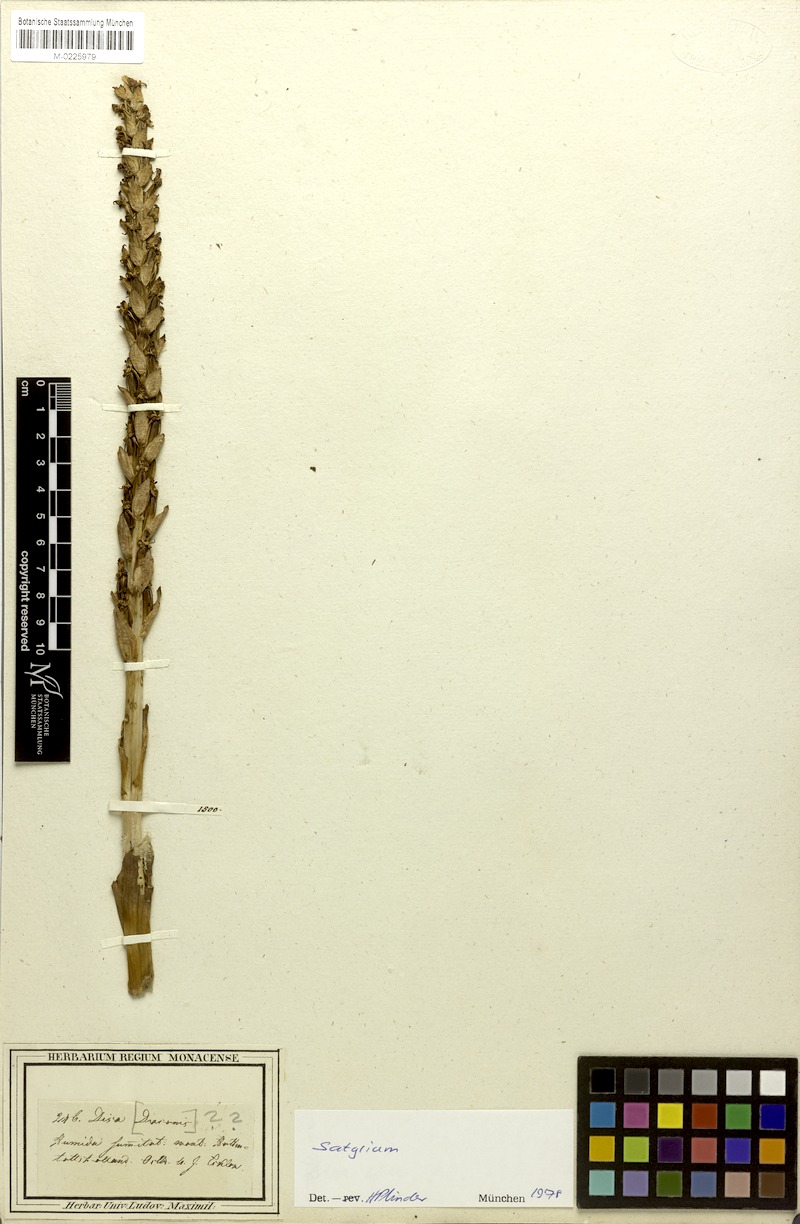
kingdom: Plantae
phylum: Tracheophyta
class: Liliopsida
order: Asparagales
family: Orchidaceae
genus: Satyrium
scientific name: Satyrium
